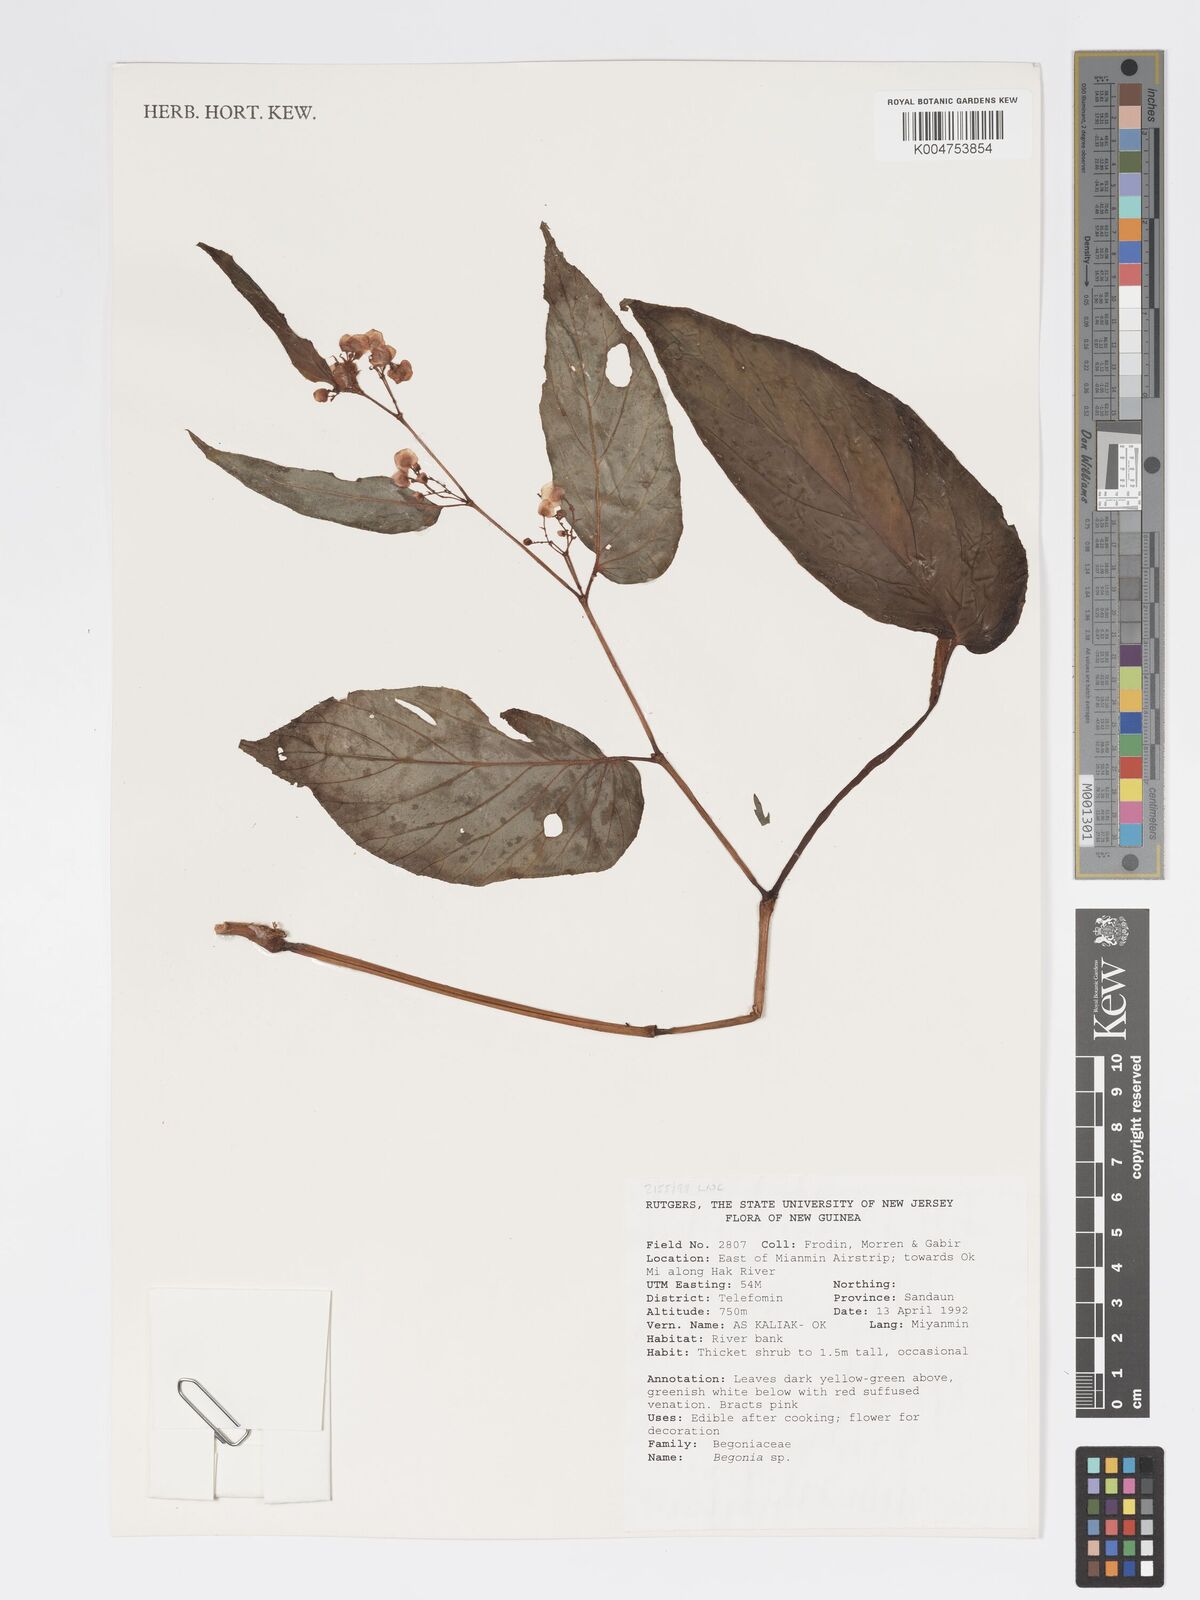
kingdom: Plantae
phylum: Tracheophyta
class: Magnoliopsida
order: Cucurbitales
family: Begoniaceae
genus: Begonia
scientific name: Begonia
